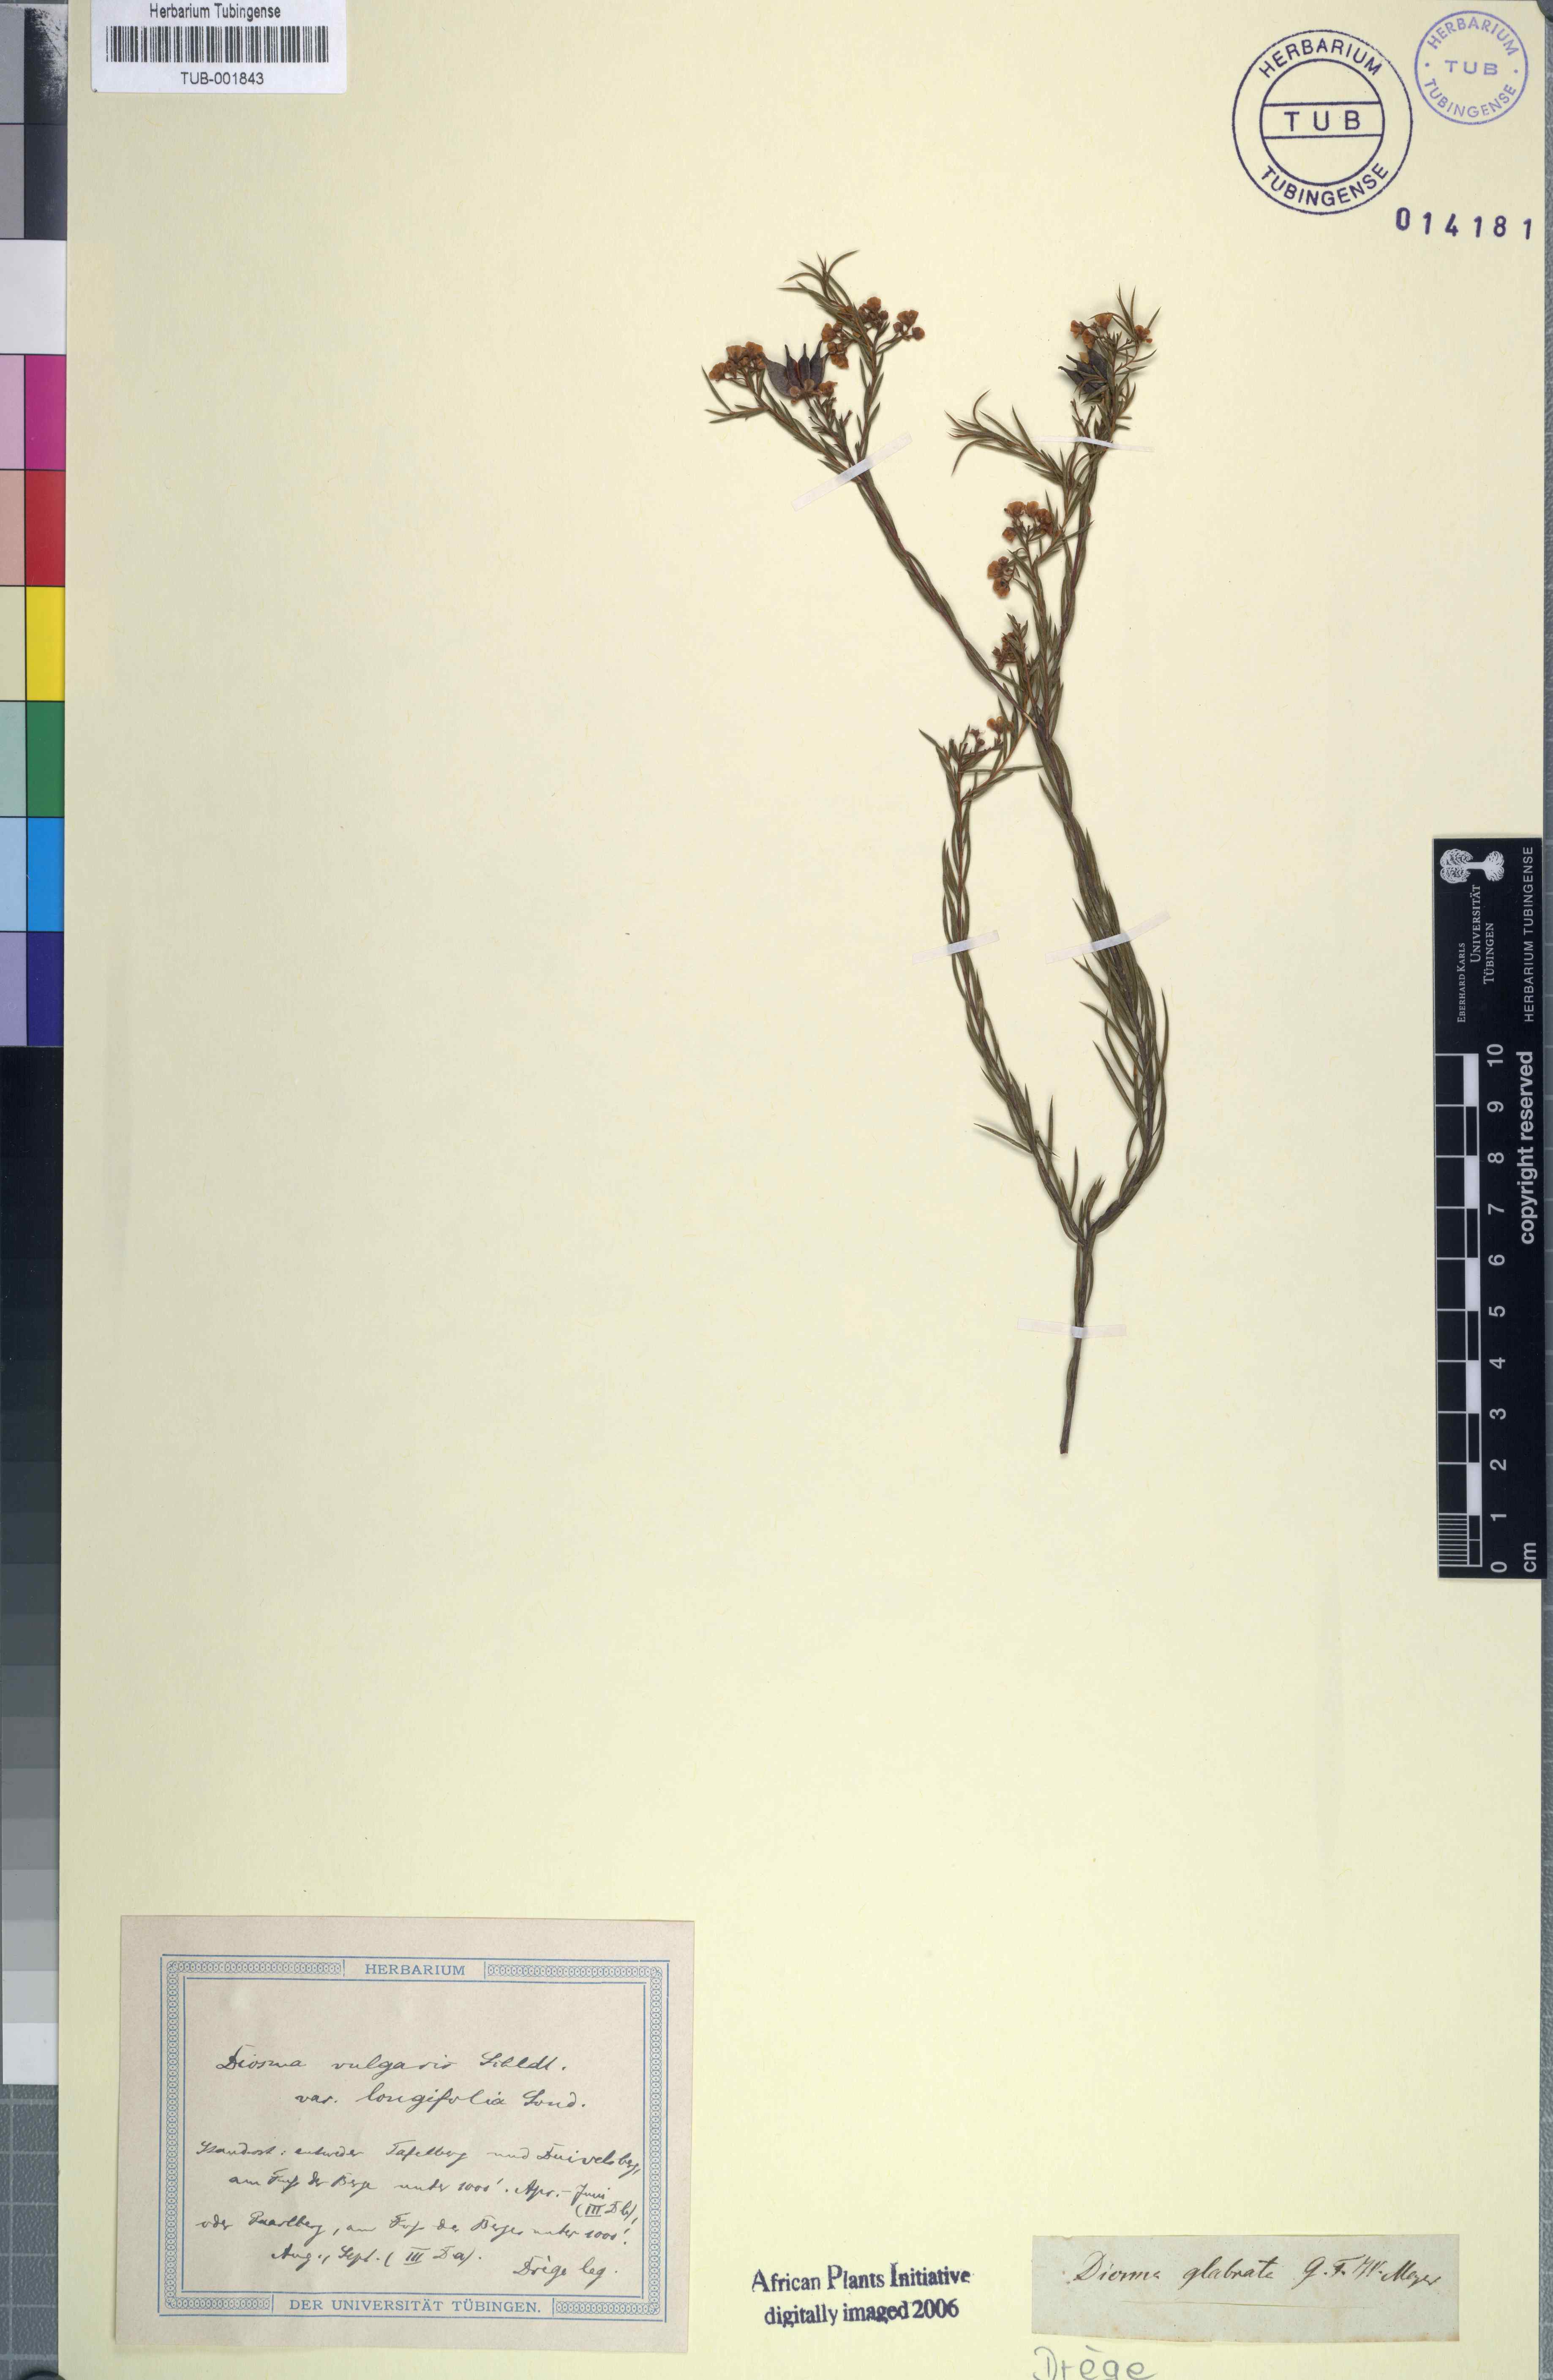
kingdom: Plantae
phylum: Tracheophyta
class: Magnoliopsida
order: Sapindales
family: Rutaceae
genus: Diosma
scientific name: Diosma oppositifolia
